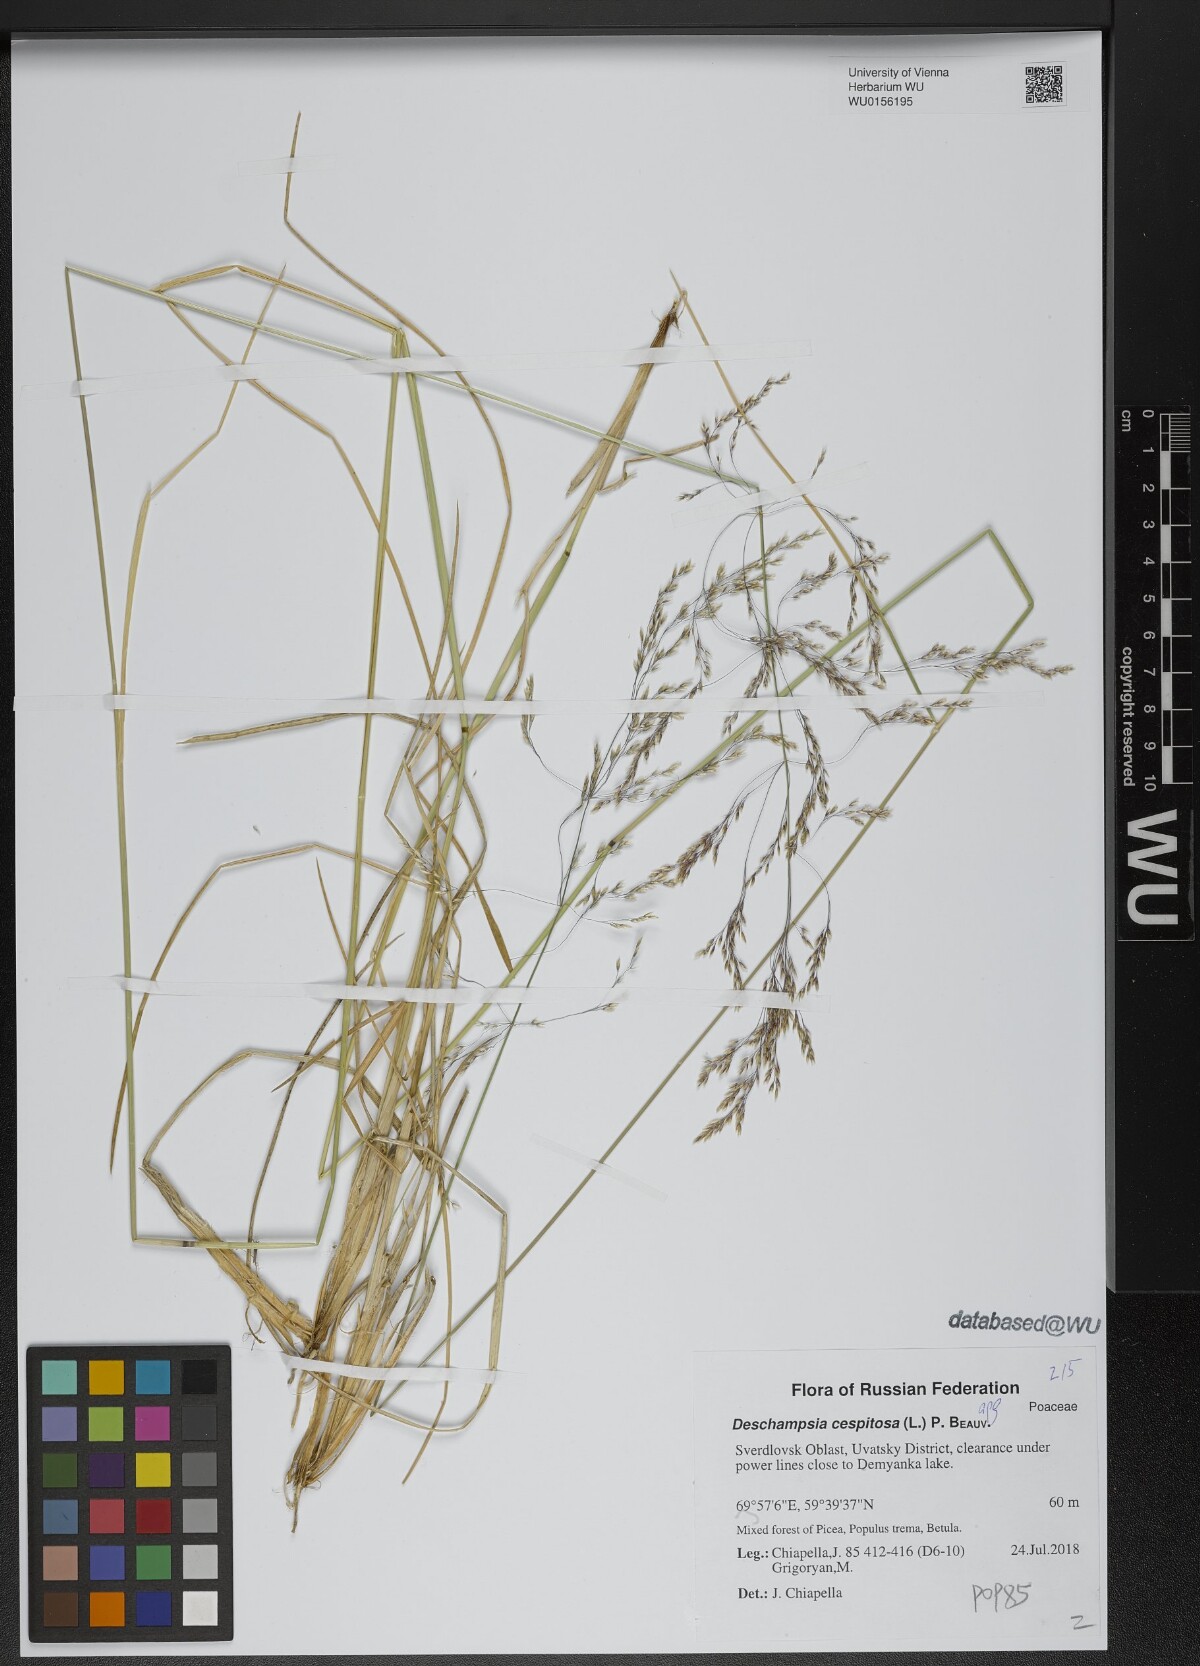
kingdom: Plantae
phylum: Tracheophyta
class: Liliopsida
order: Poales
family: Poaceae
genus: Deschampsia
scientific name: Deschampsia cespitosa
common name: Tufted hair-grass
